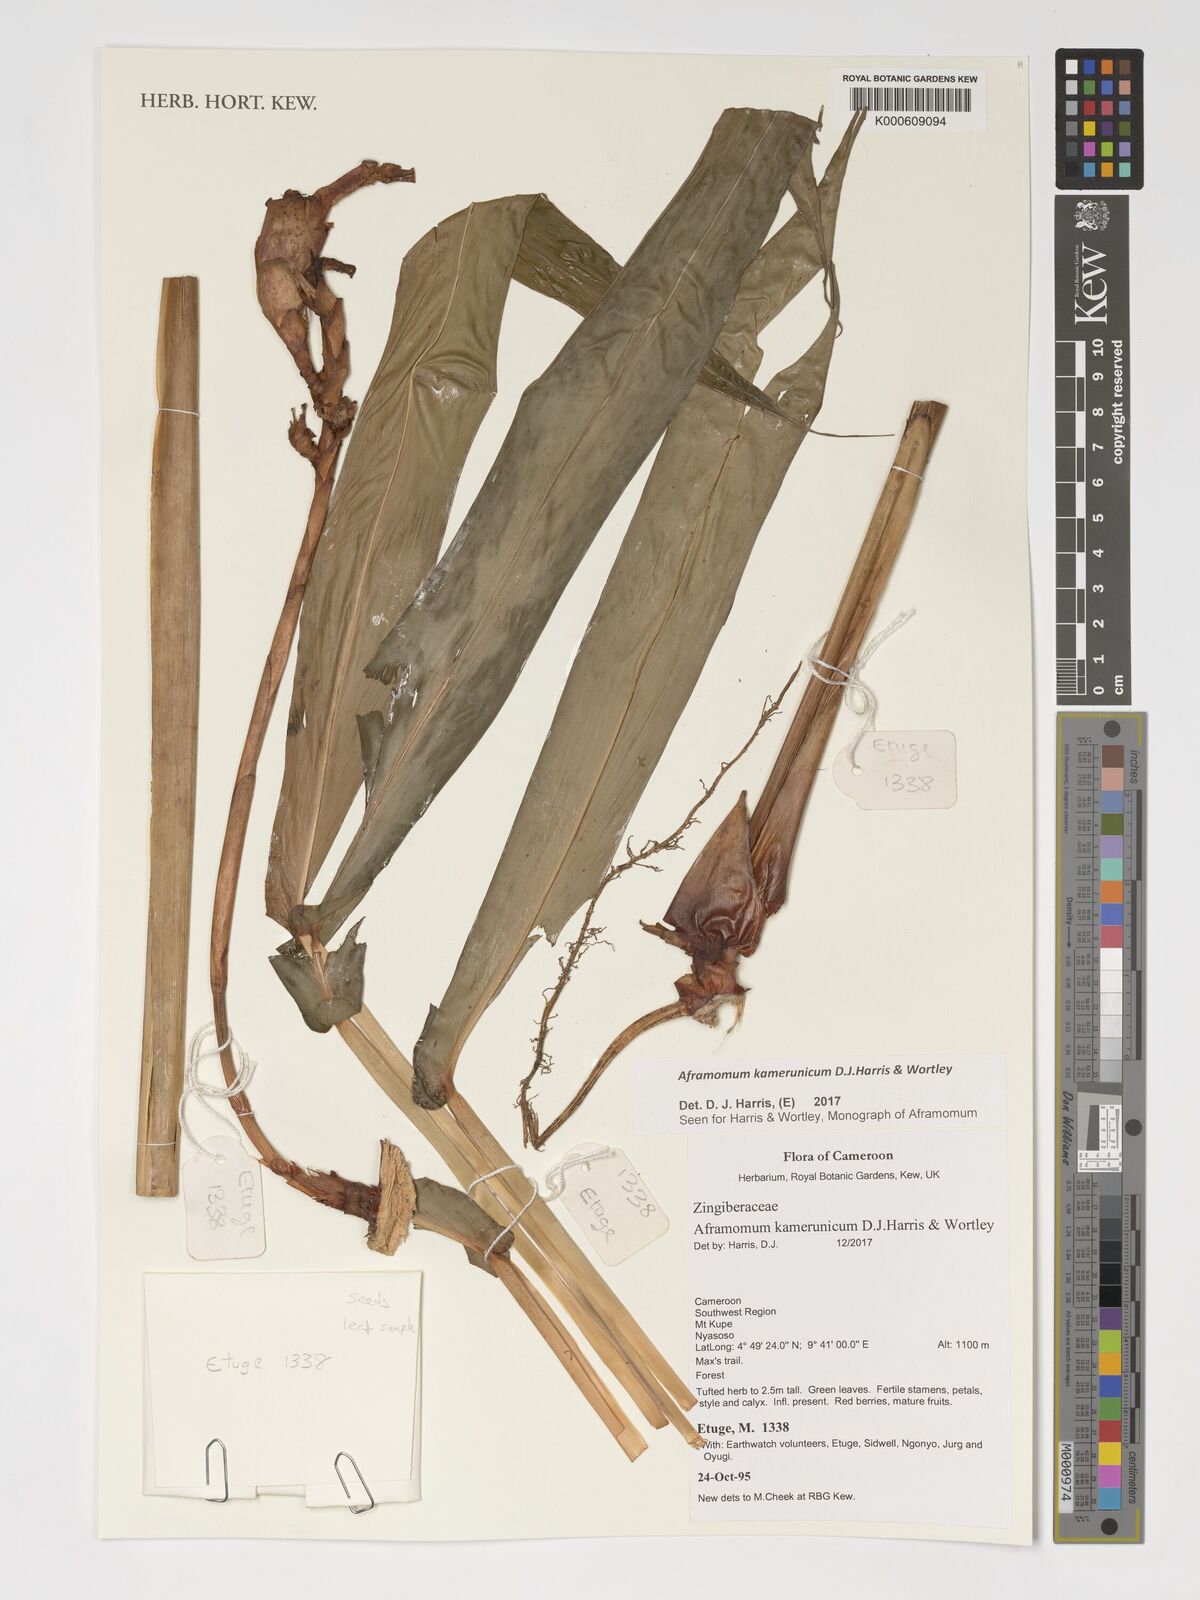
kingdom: Plantae
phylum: Tracheophyta
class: Liliopsida
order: Zingiberales
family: Zingiberaceae
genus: Aframomum
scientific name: Aframomum kamerunicum
